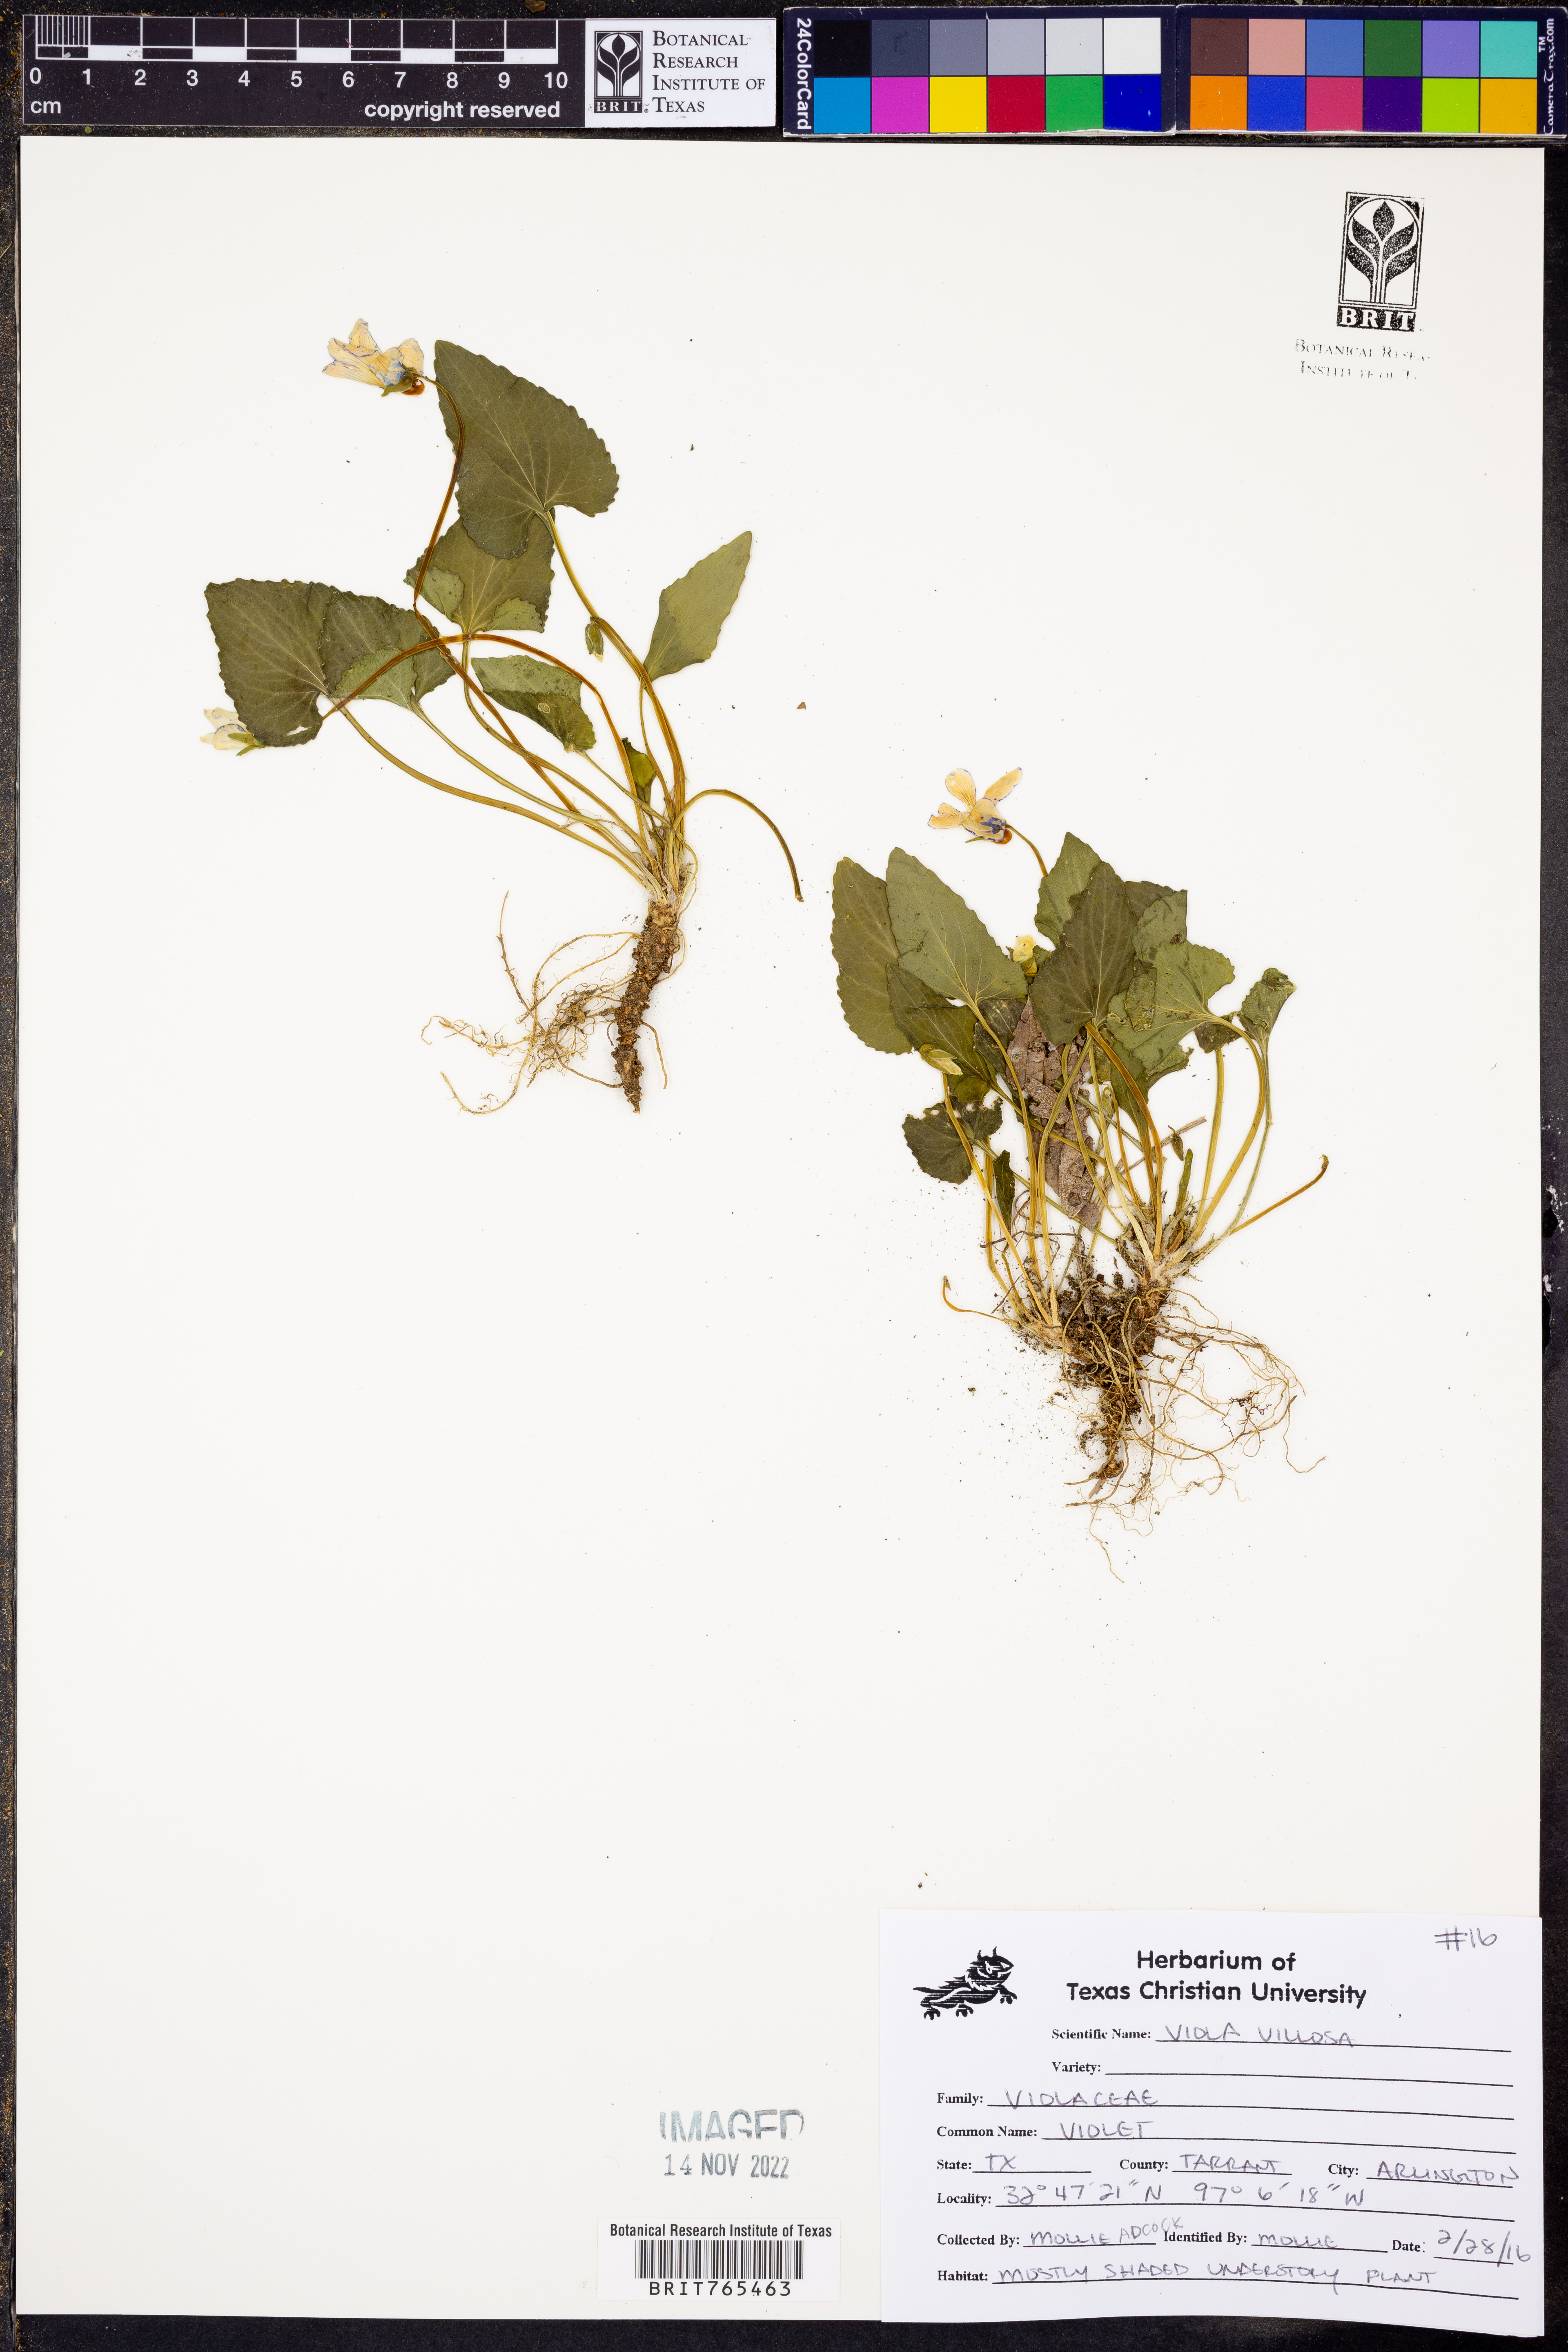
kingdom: Plantae
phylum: Tracheophyta
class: Magnoliopsida
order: Malpighiales
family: Violaceae
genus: Viola
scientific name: Viola villosa
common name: Carolina violet
